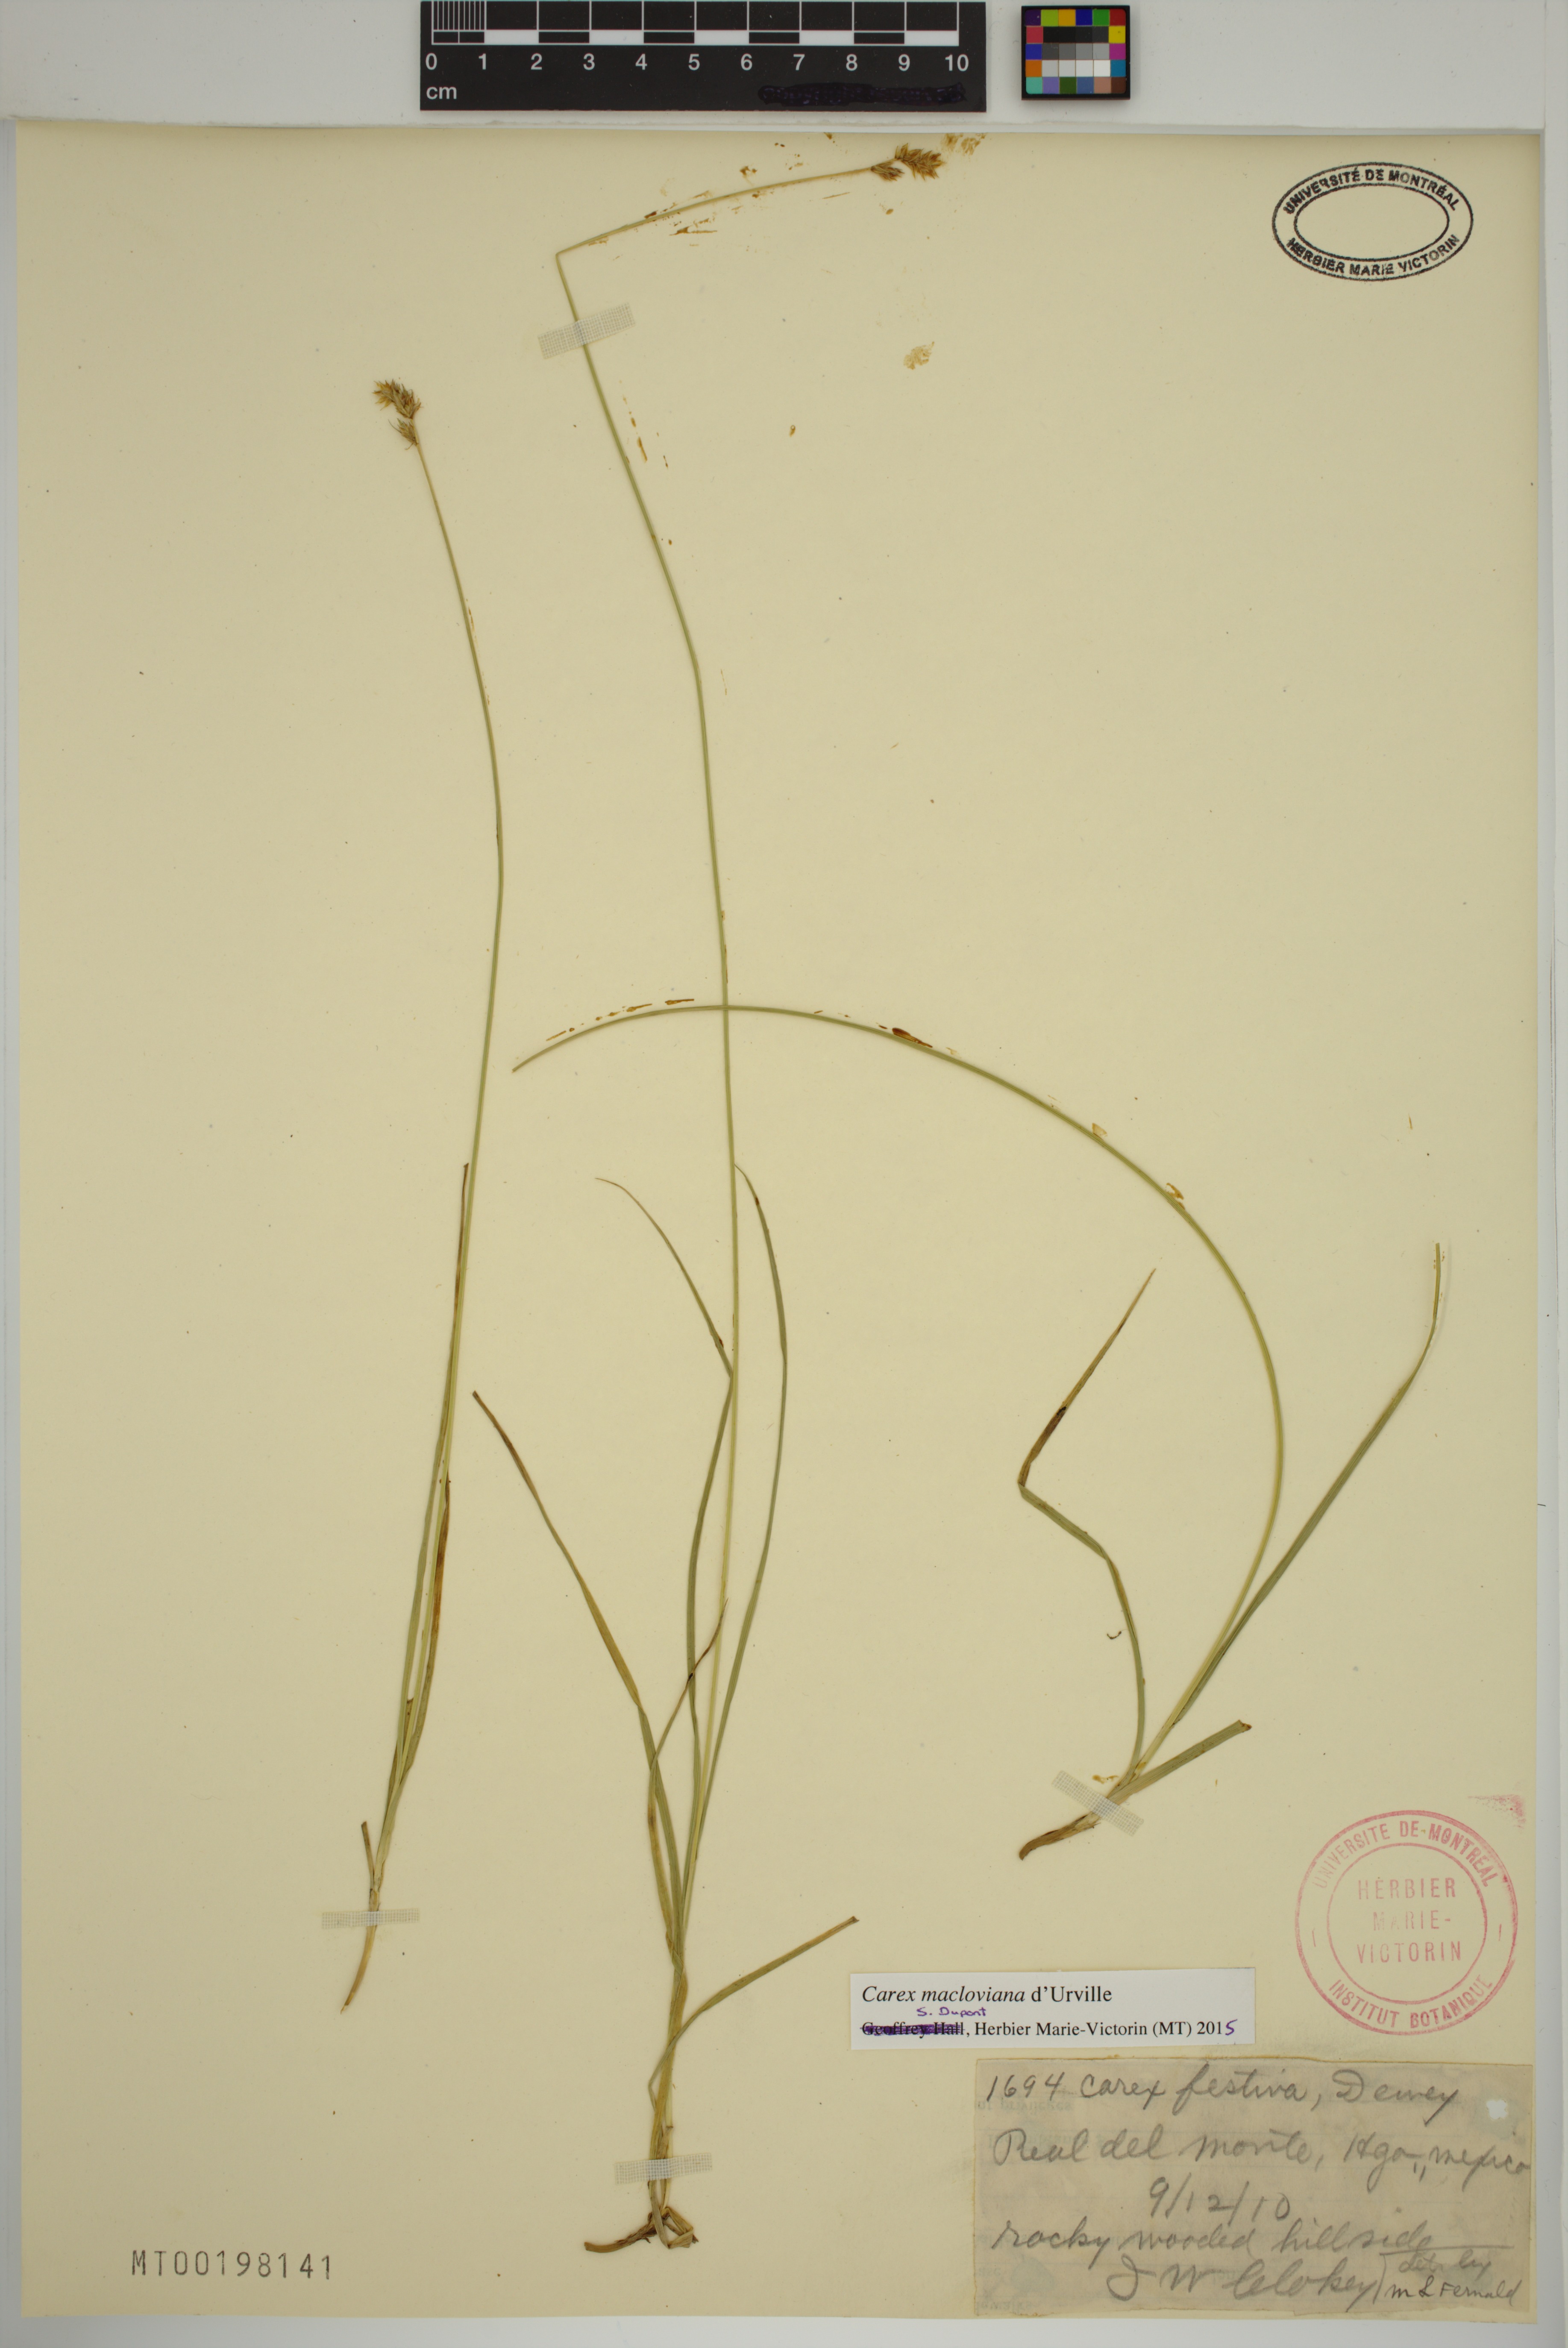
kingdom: Plantae
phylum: Tracheophyta
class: Liliopsida
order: Poales
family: Cyperaceae
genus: Carex
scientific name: Carex macloviana
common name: Falkland island sedge
